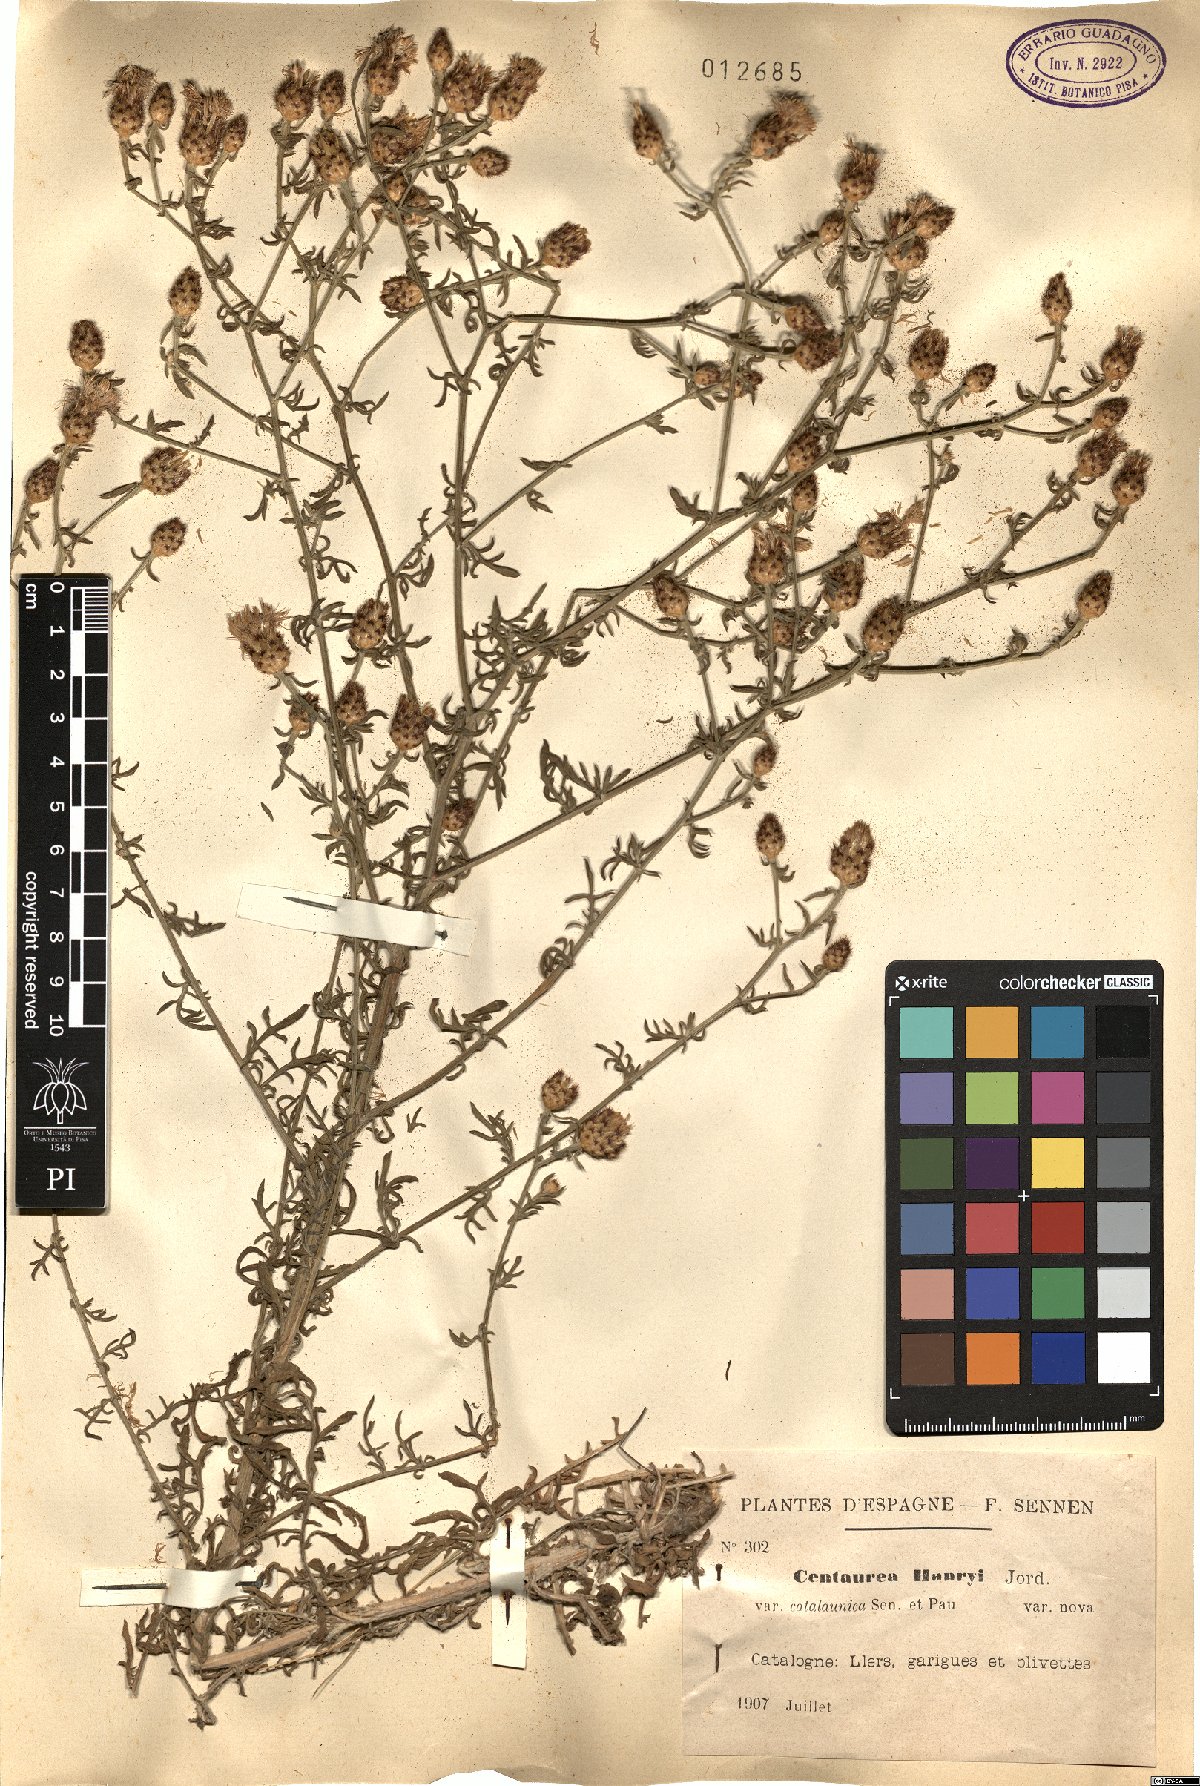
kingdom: Plantae
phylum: Tracheophyta
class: Magnoliopsida
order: Asterales
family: Asteraceae
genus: Centaurea
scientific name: Centaurea paniculata
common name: Jersey knapweed
